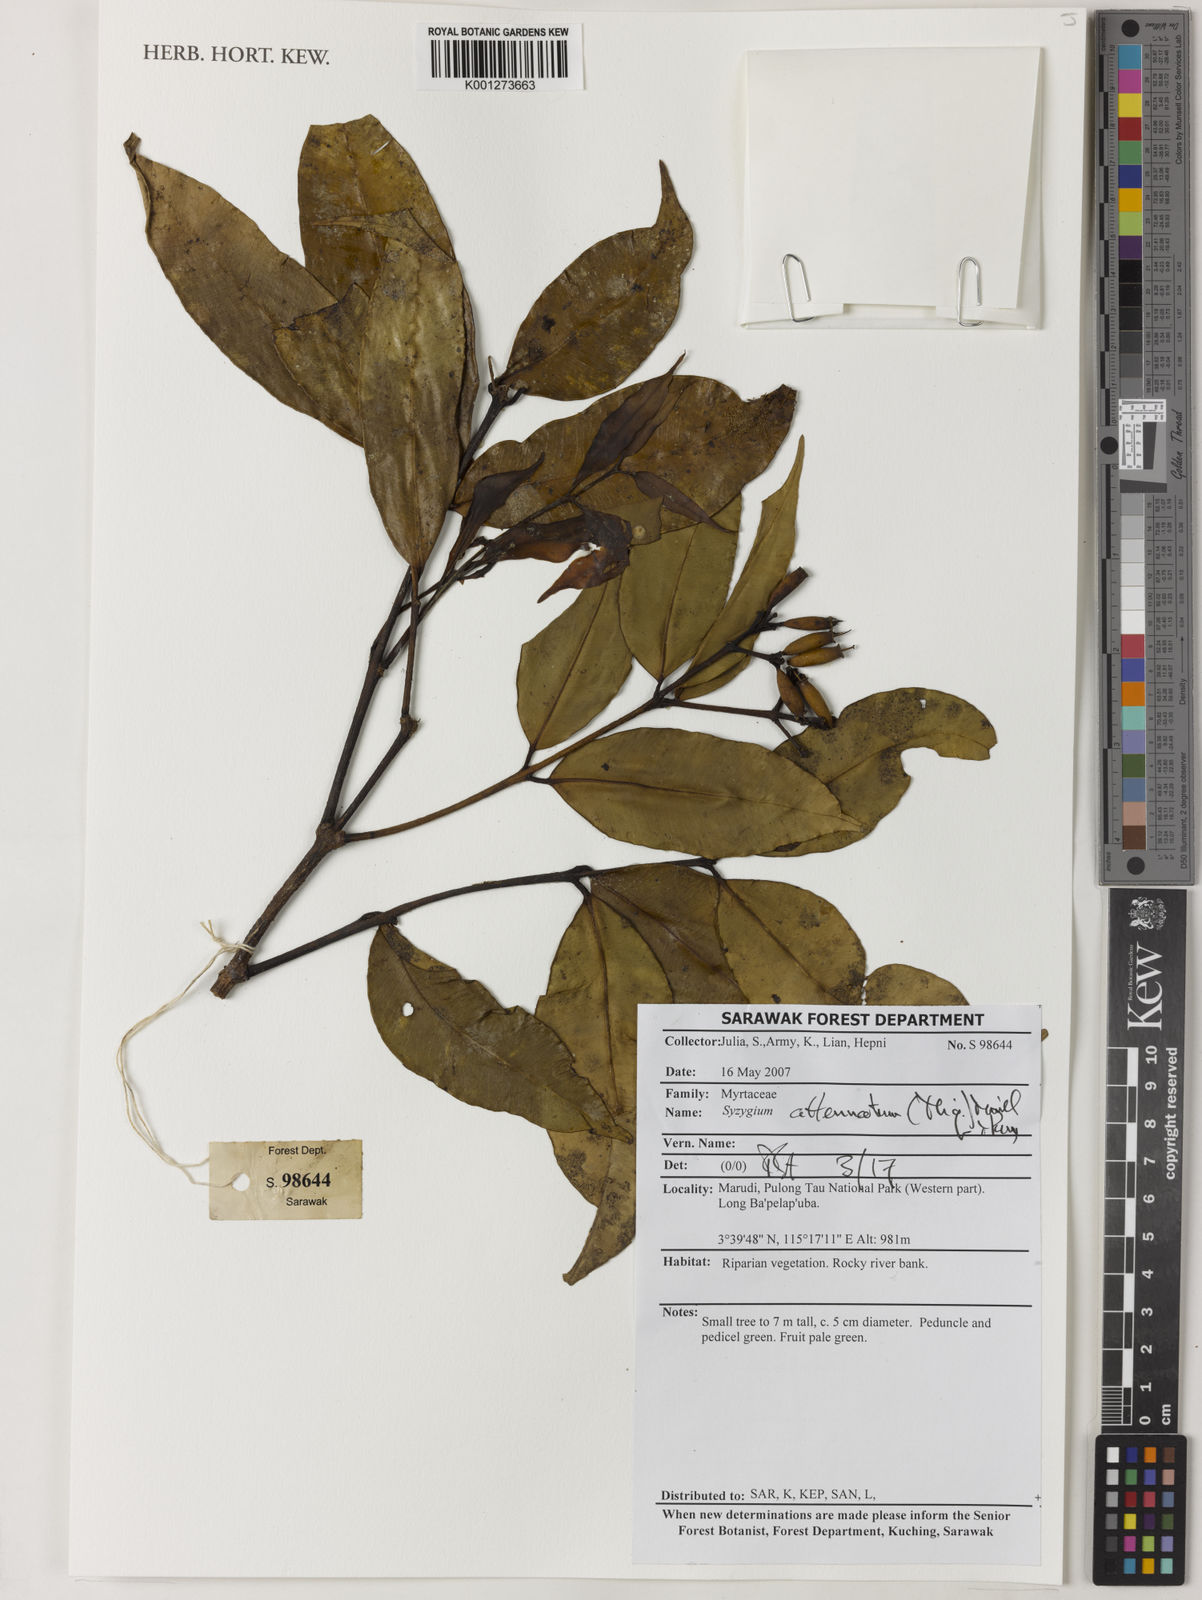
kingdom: Plantae
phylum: Tracheophyta
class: Magnoliopsida
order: Myrtales
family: Myrtaceae
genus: Syzygium
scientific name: Syzygium attenuatum
